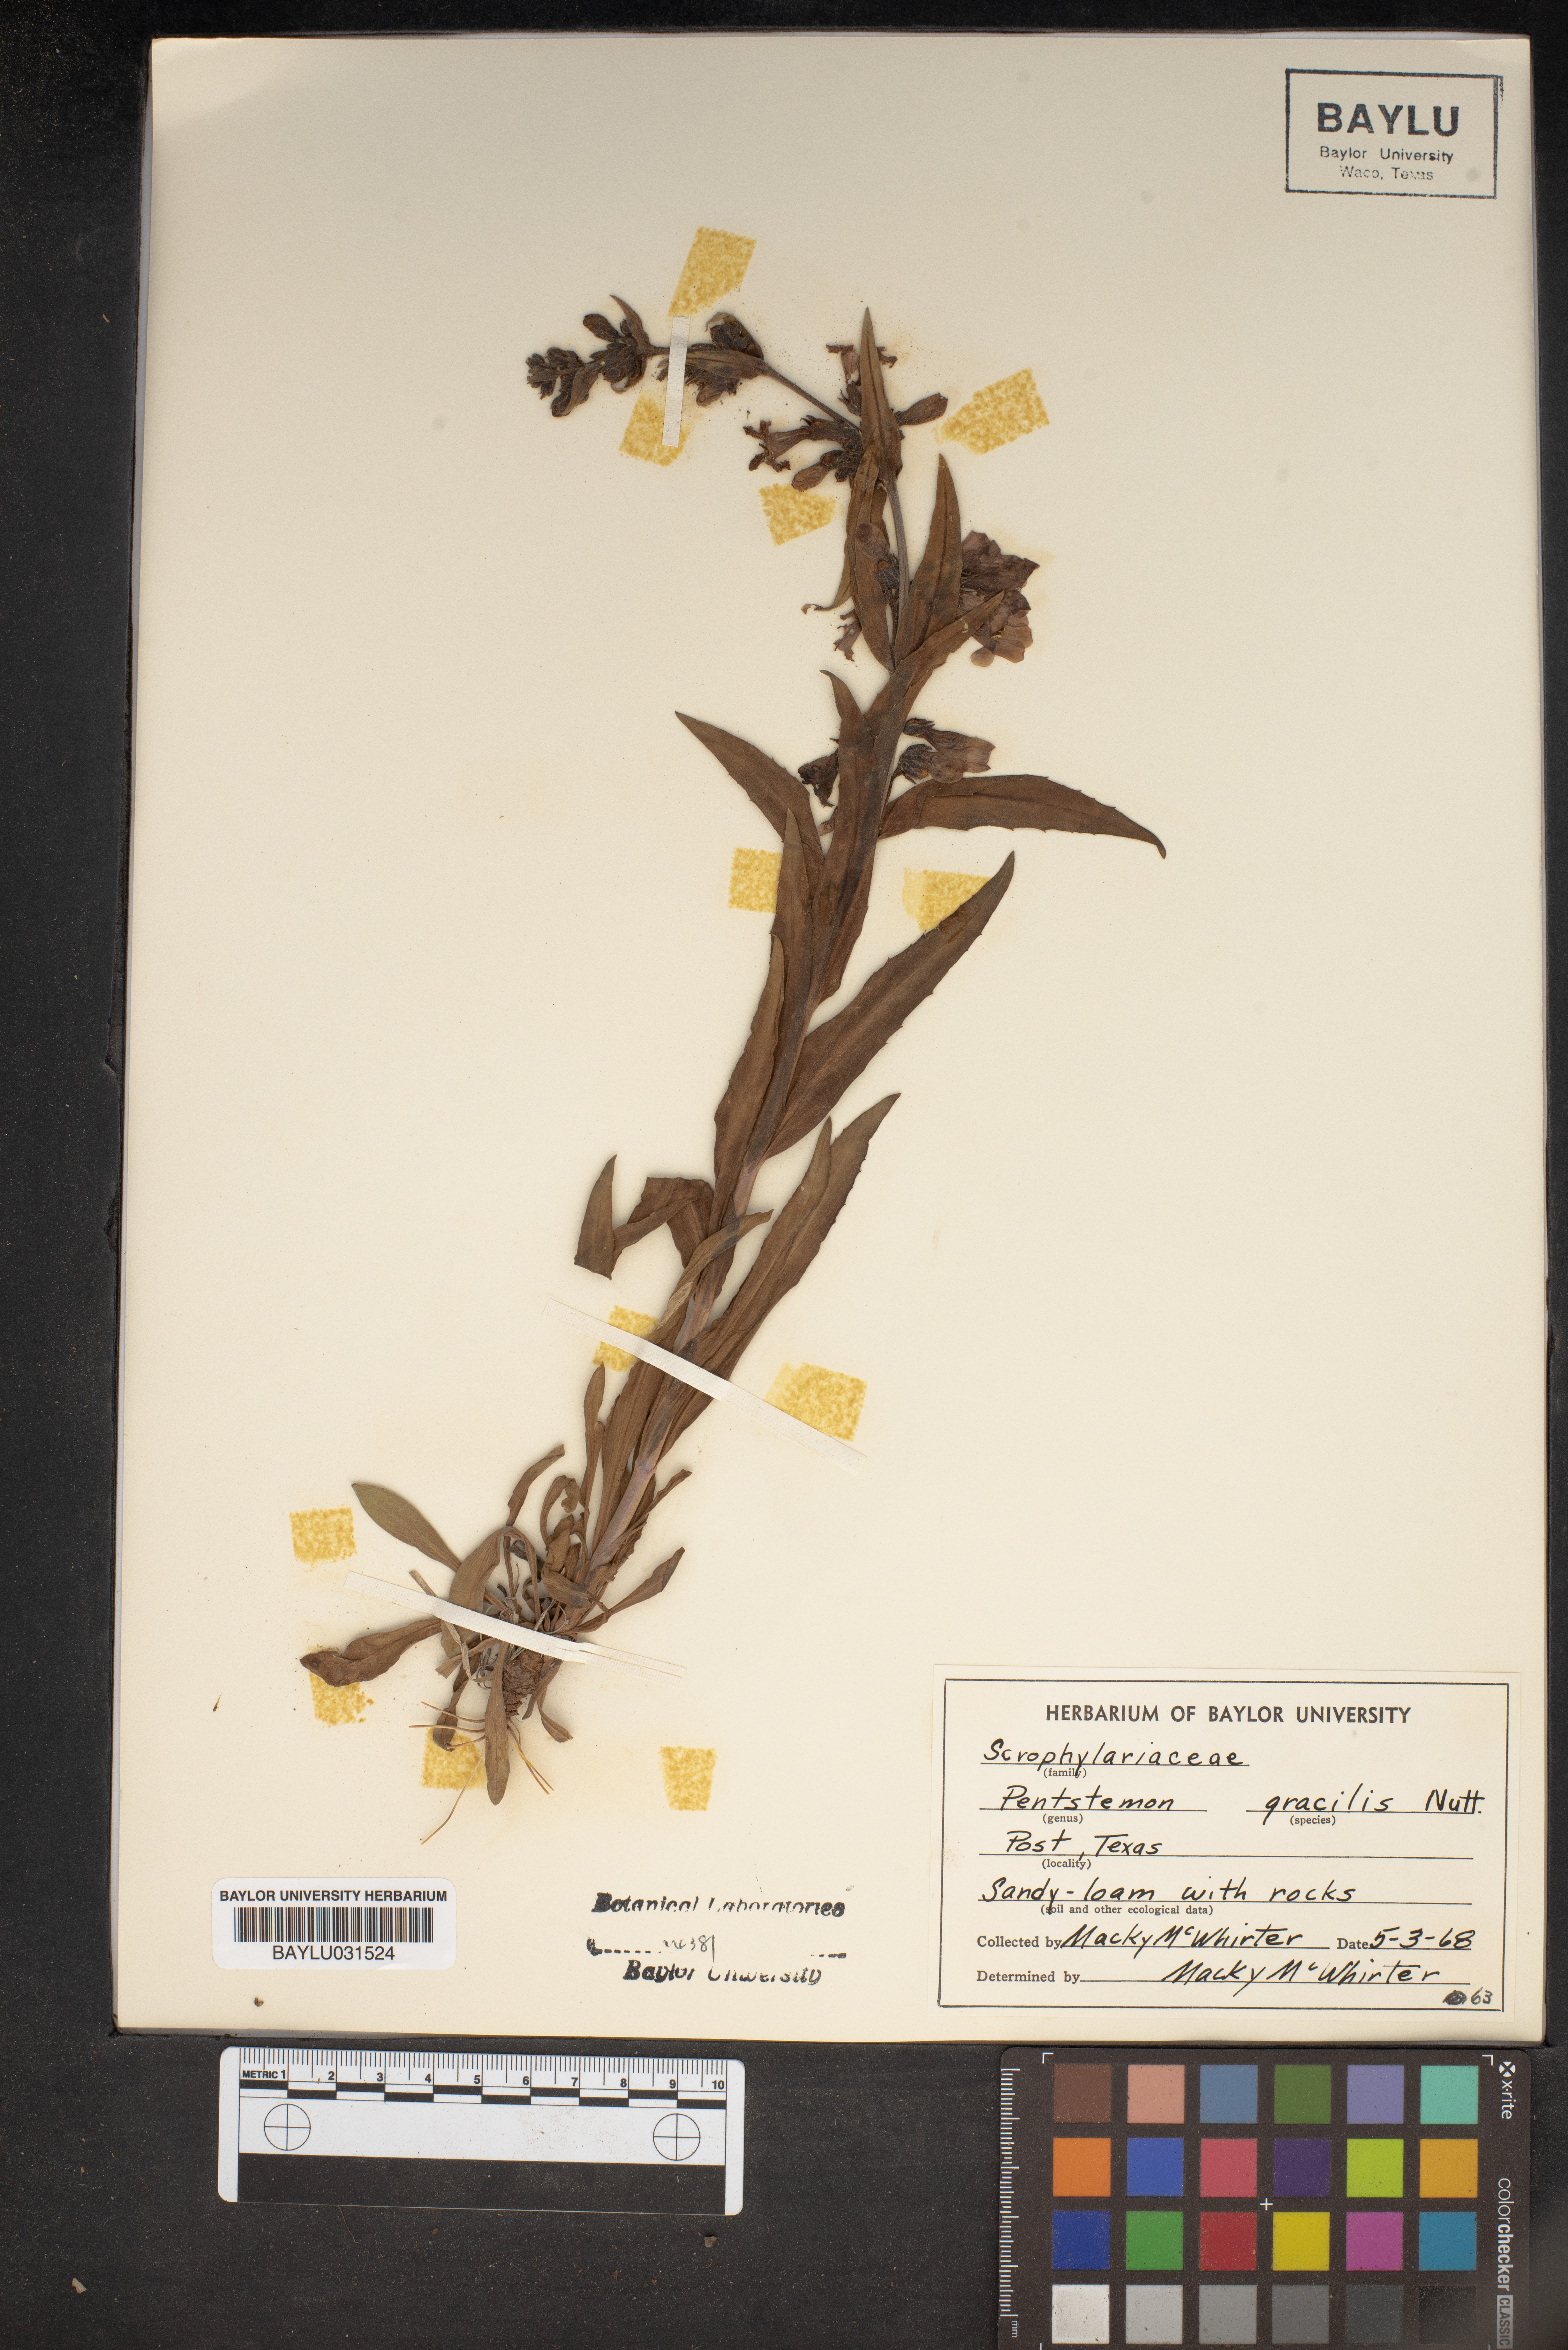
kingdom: Plantae
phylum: Tracheophyta
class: Magnoliopsida
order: Lamiales
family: Plantaginaceae
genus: Penstemon
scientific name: Penstemon gracilis
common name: Slender beardtongue
